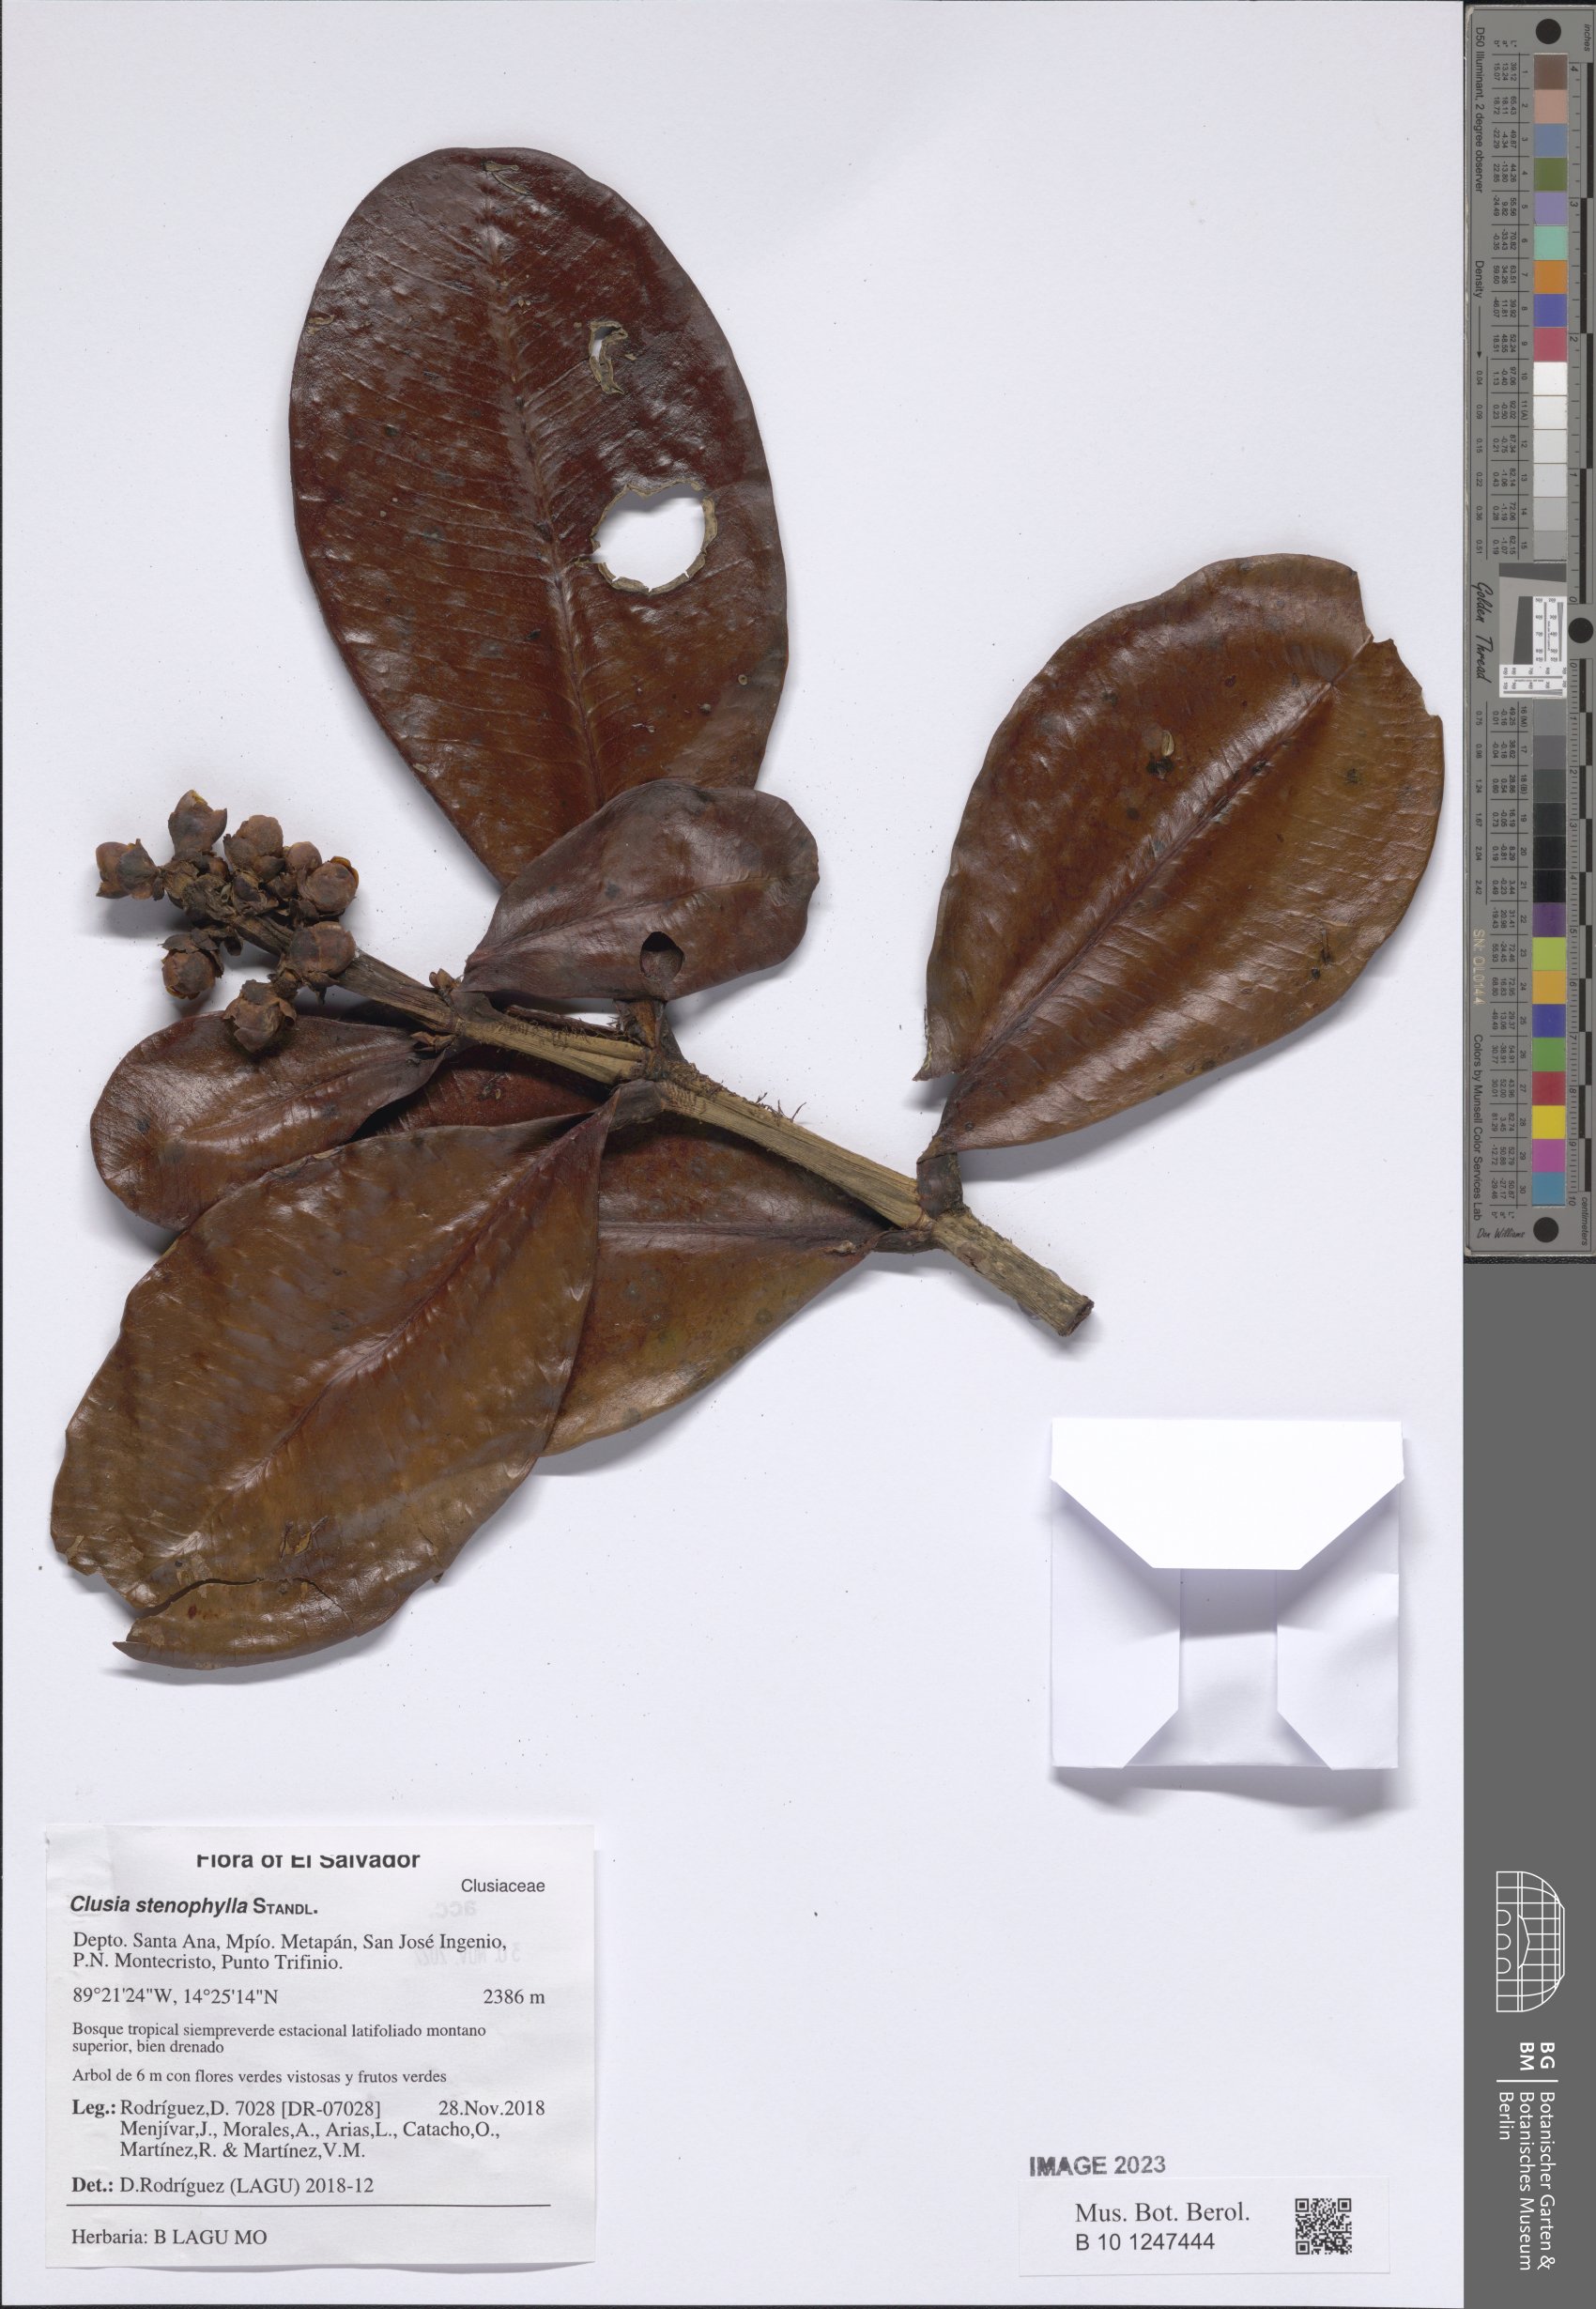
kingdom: Plantae
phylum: Tracheophyta
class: Magnoliopsida
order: Malpighiales
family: Clusiaceae
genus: Clusia
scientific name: Clusia stenophylla
